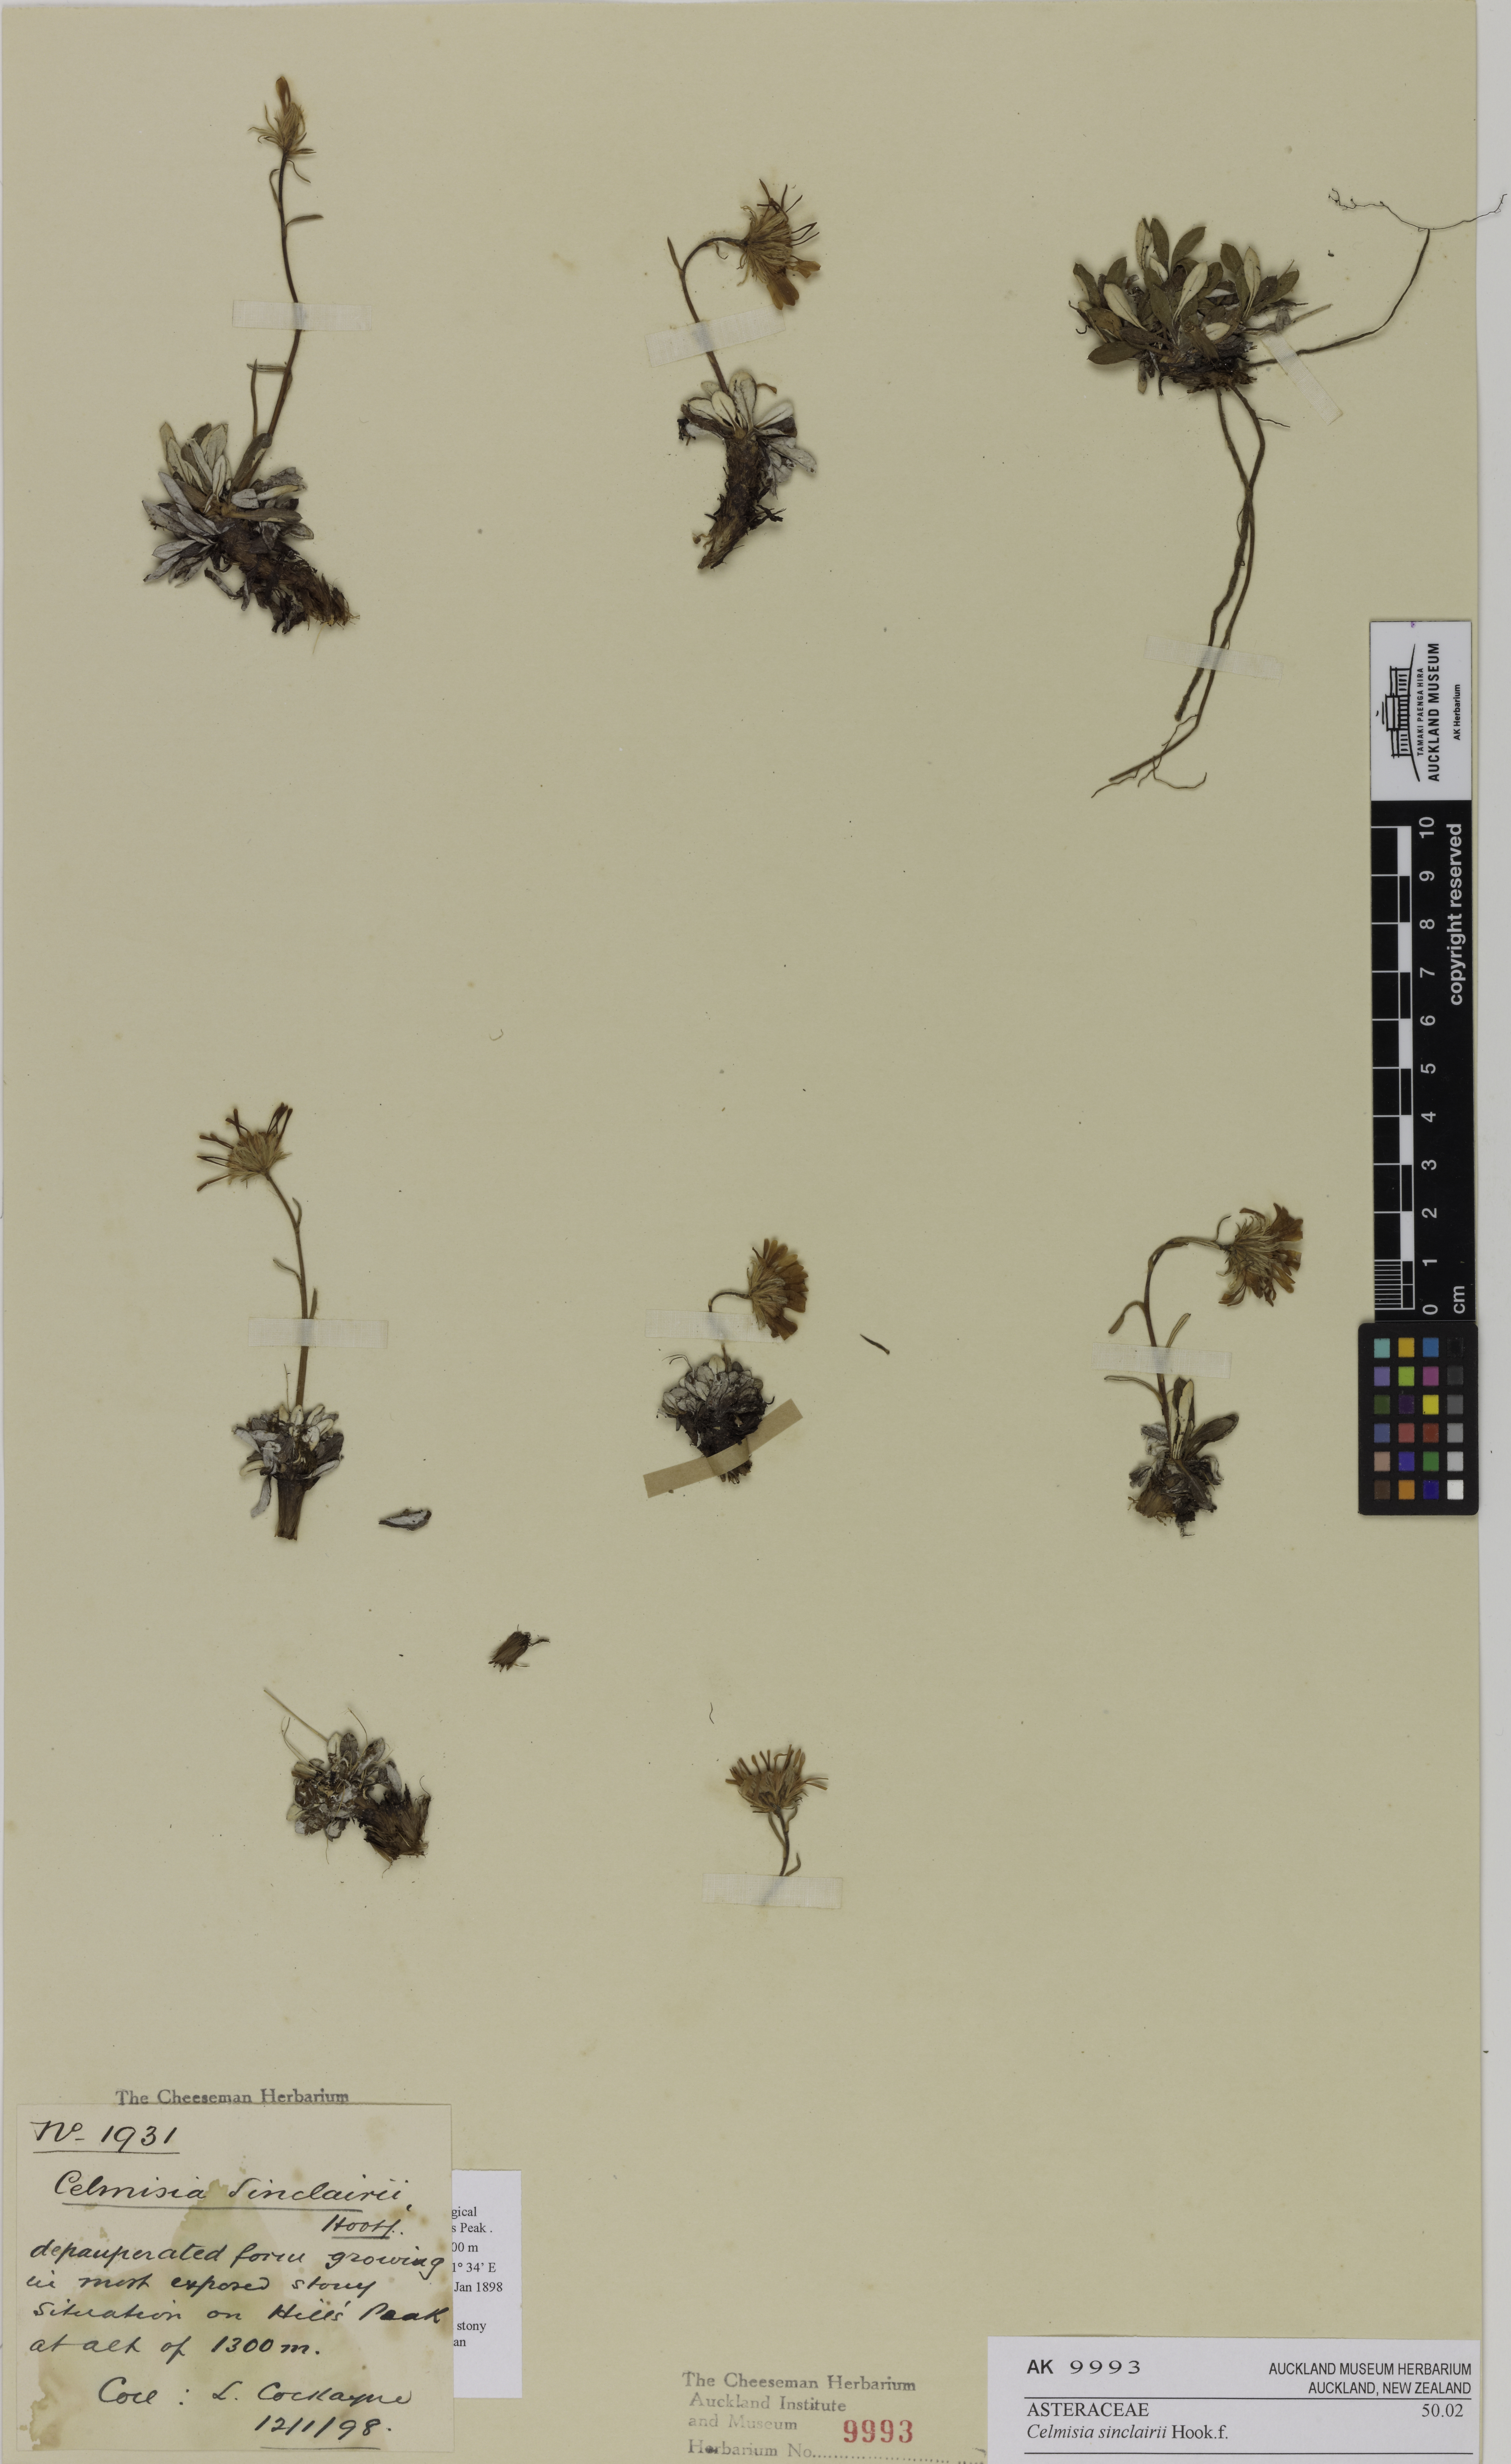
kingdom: Plantae
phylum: Tracheophyta
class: Magnoliopsida
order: Asterales
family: Asteraceae
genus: Celmisia
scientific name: Celmisia sinclairii
